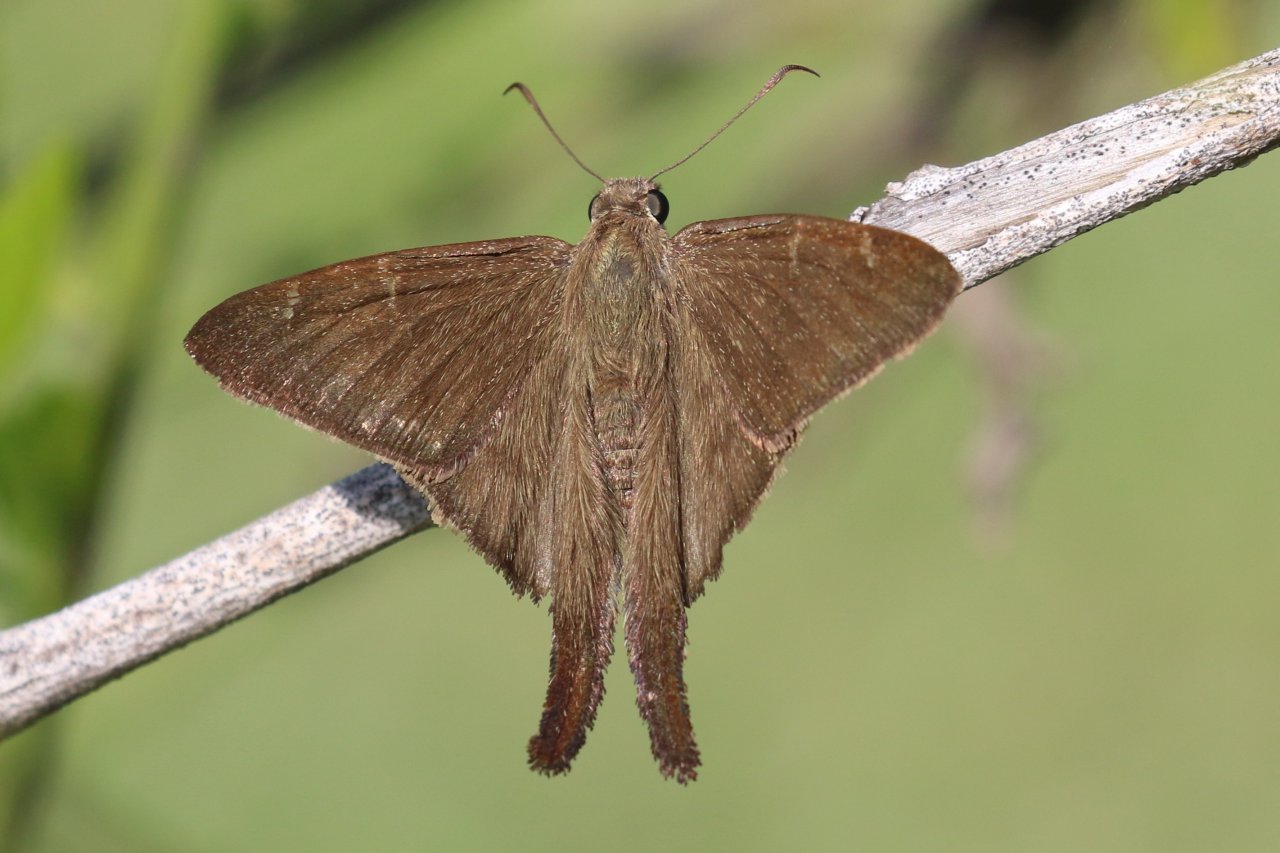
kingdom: Animalia
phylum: Arthropoda
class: Insecta
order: Lepidoptera
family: Hesperiidae
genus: Urbanus
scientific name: Urbanus procne
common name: Brown Longtail
